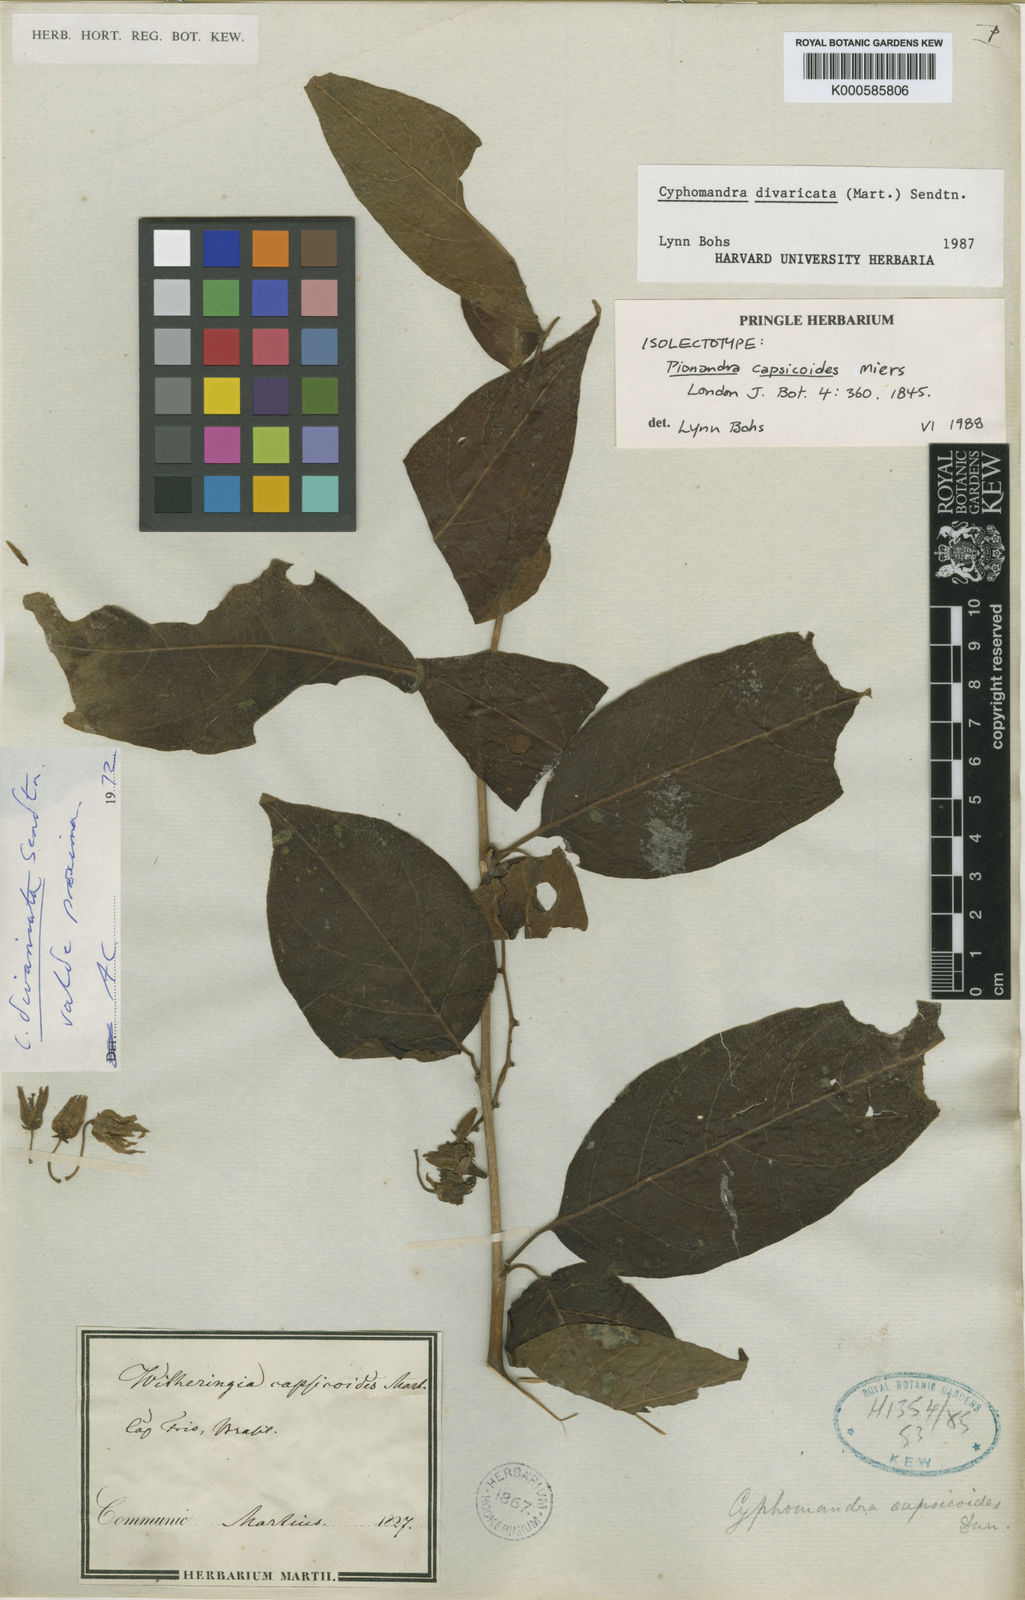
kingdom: Plantae
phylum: Tracheophyta
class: Magnoliopsida
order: Solanales
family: Solanaceae
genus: Solanum
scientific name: Solanum melissarum
